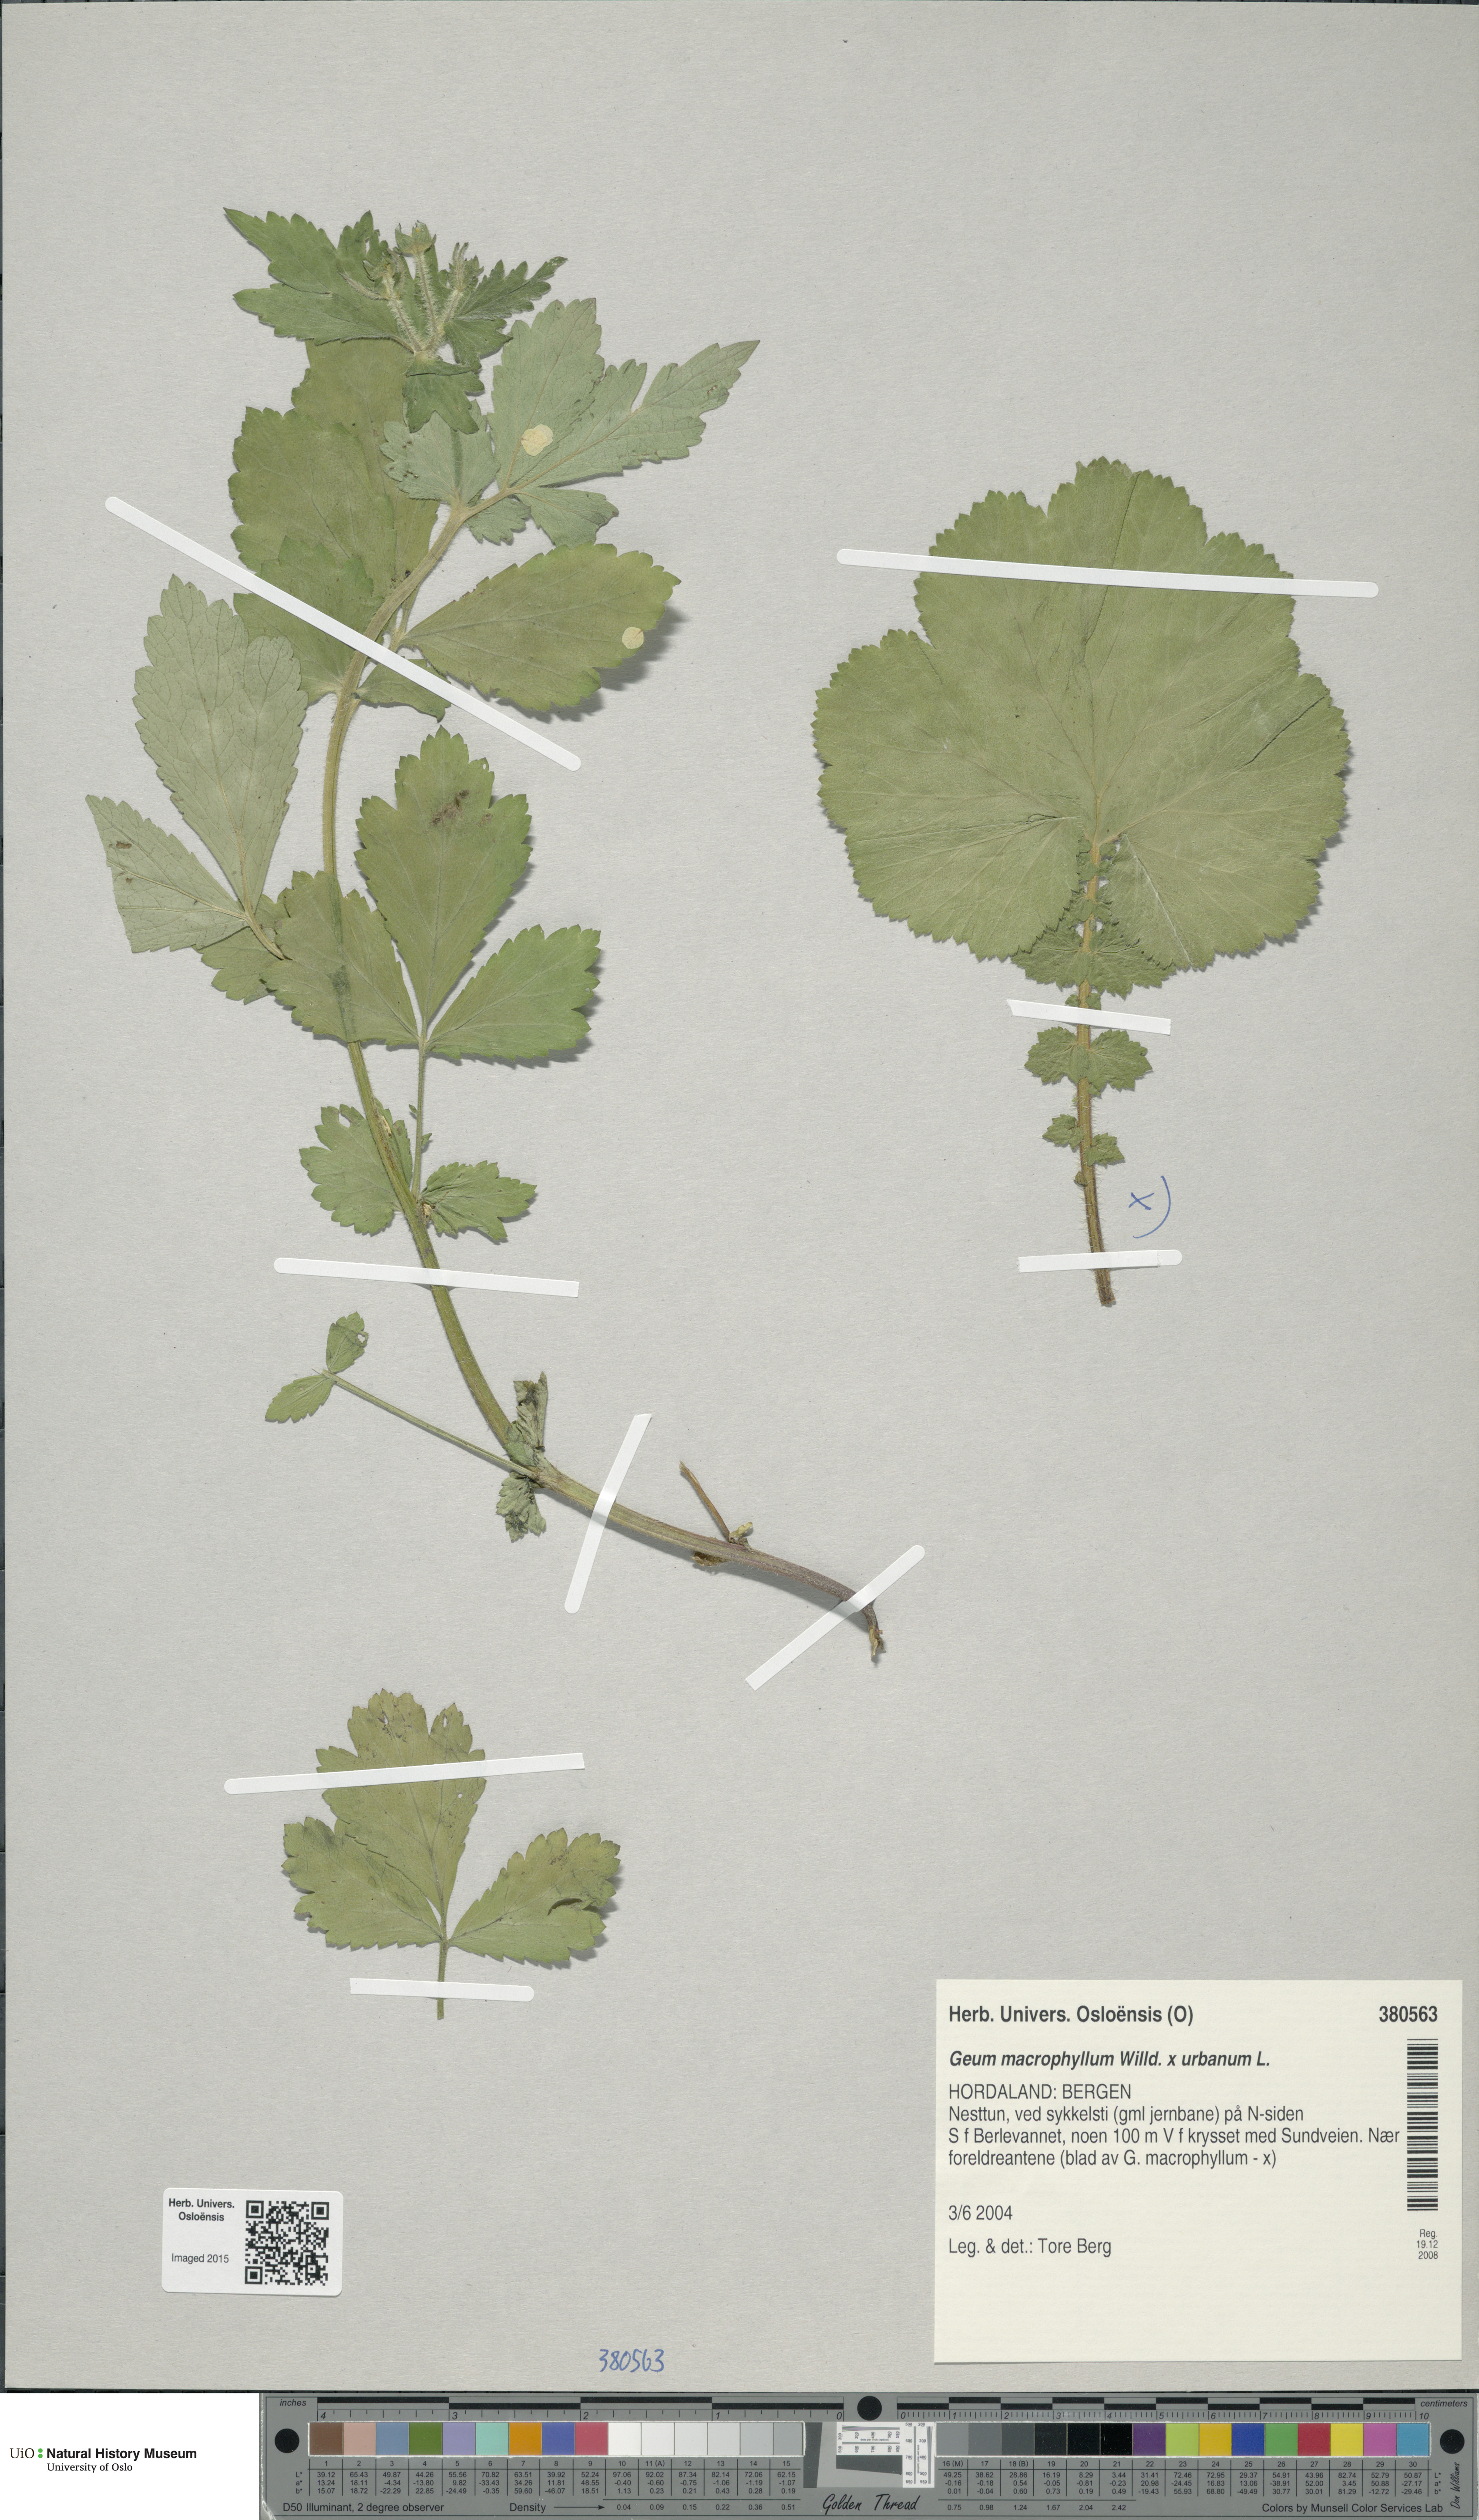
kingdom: Plantae
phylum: Tracheophyta
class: Magnoliopsida
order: Rosales
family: Rosaceae
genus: Geum
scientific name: Geum
